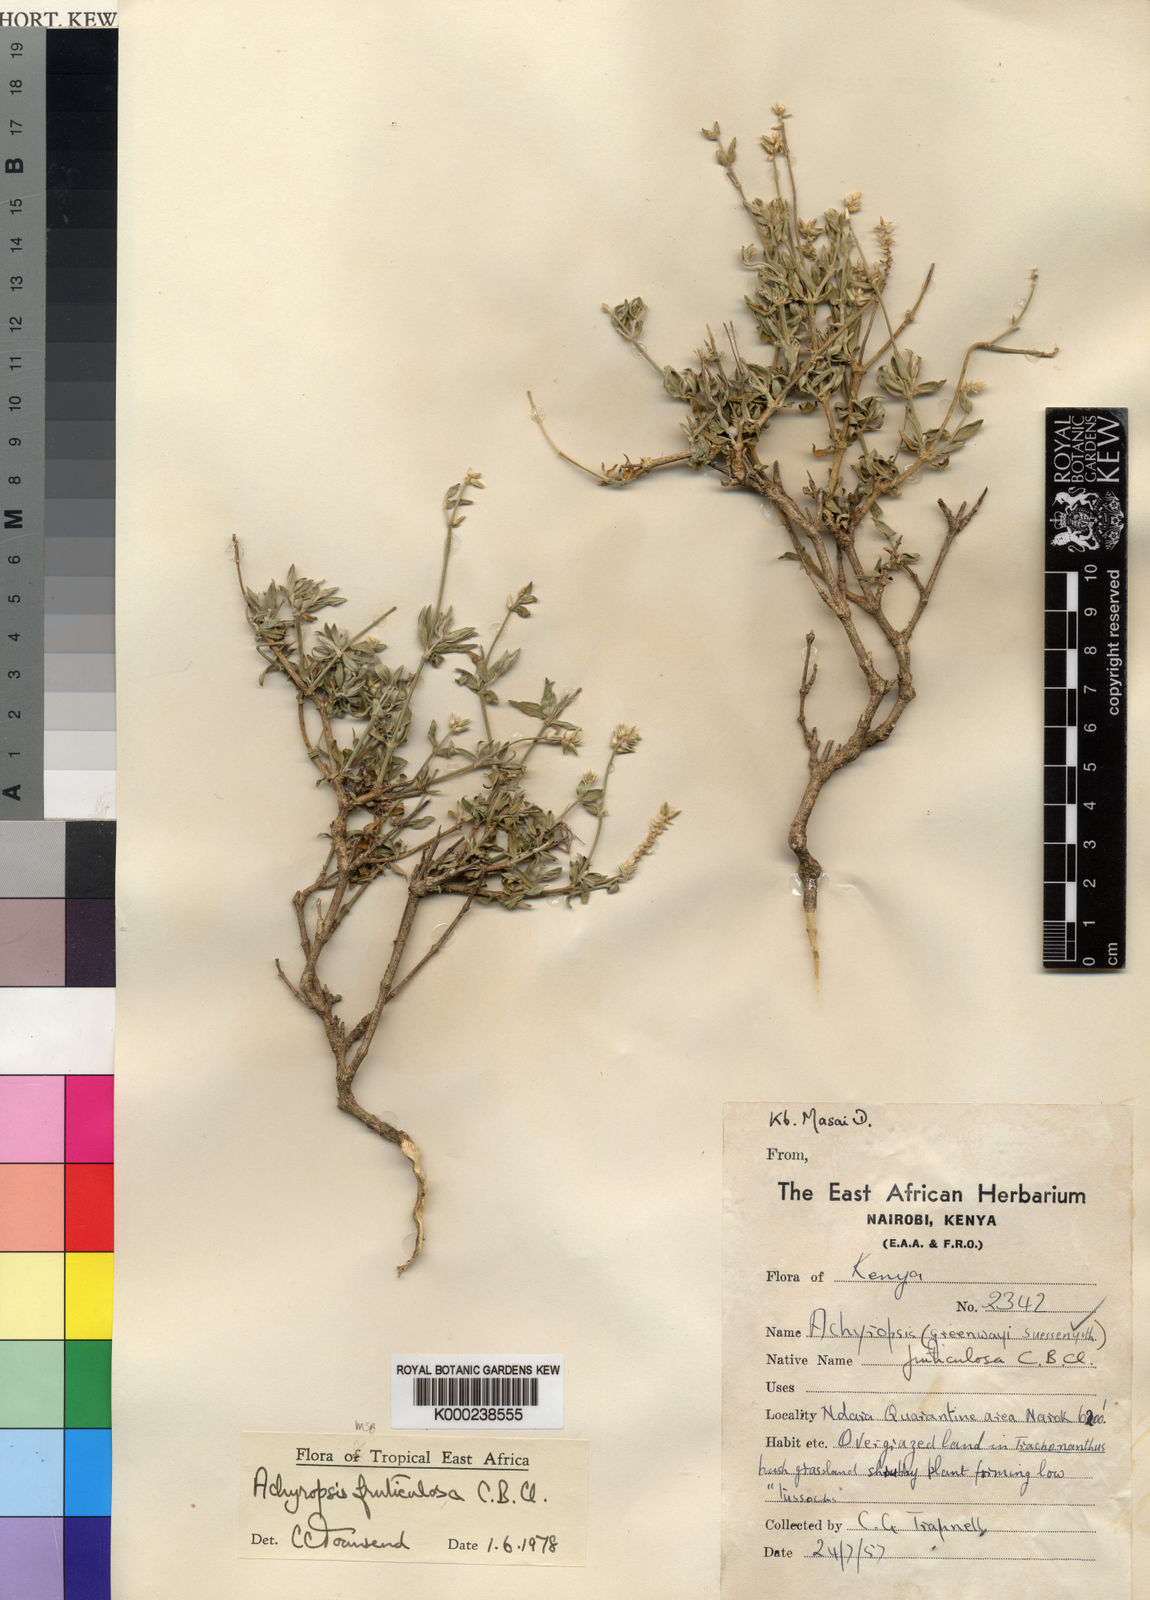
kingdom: Plantae
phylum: Tracheophyta
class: Magnoliopsida
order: Caryophyllales
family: Amaranthaceae
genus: Achyropsis
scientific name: Achyropsis fruticulosa
